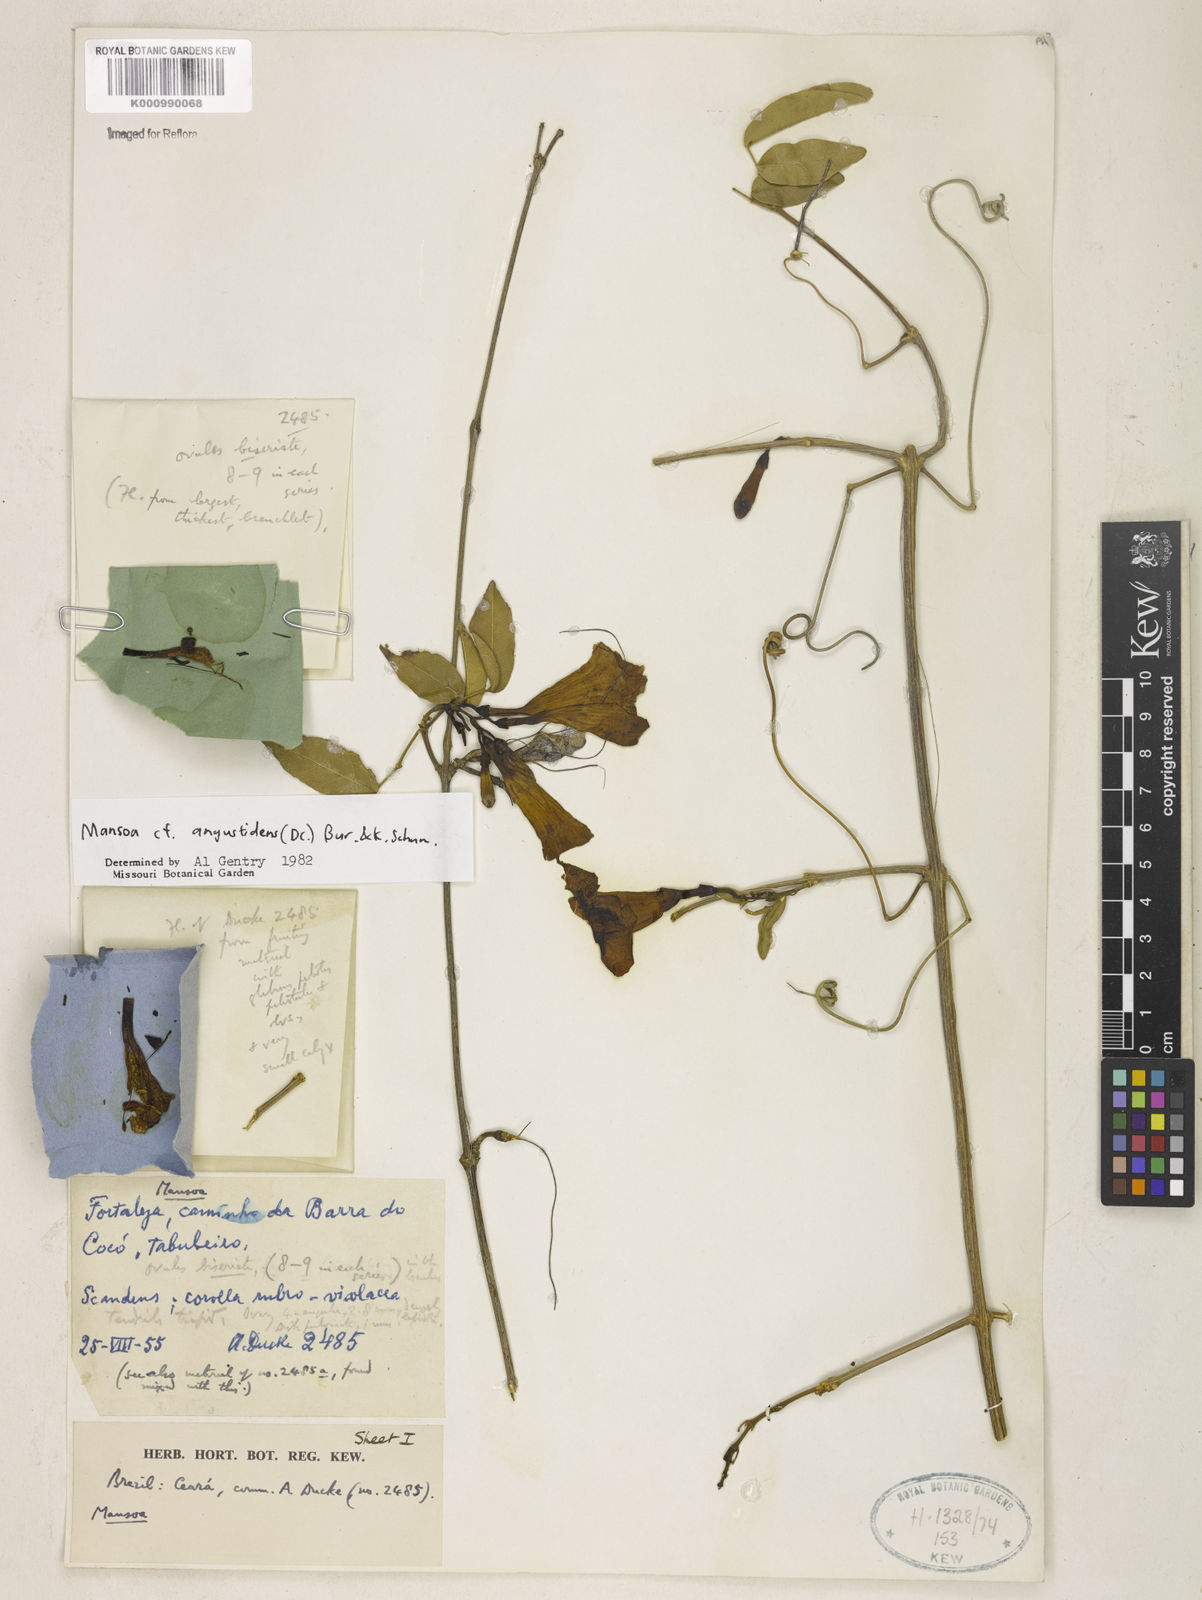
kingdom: Plantae
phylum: Tracheophyta
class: Magnoliopsida
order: Lamiales
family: Bignoniaceae
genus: Mansoa
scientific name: Mansoa angustidens
